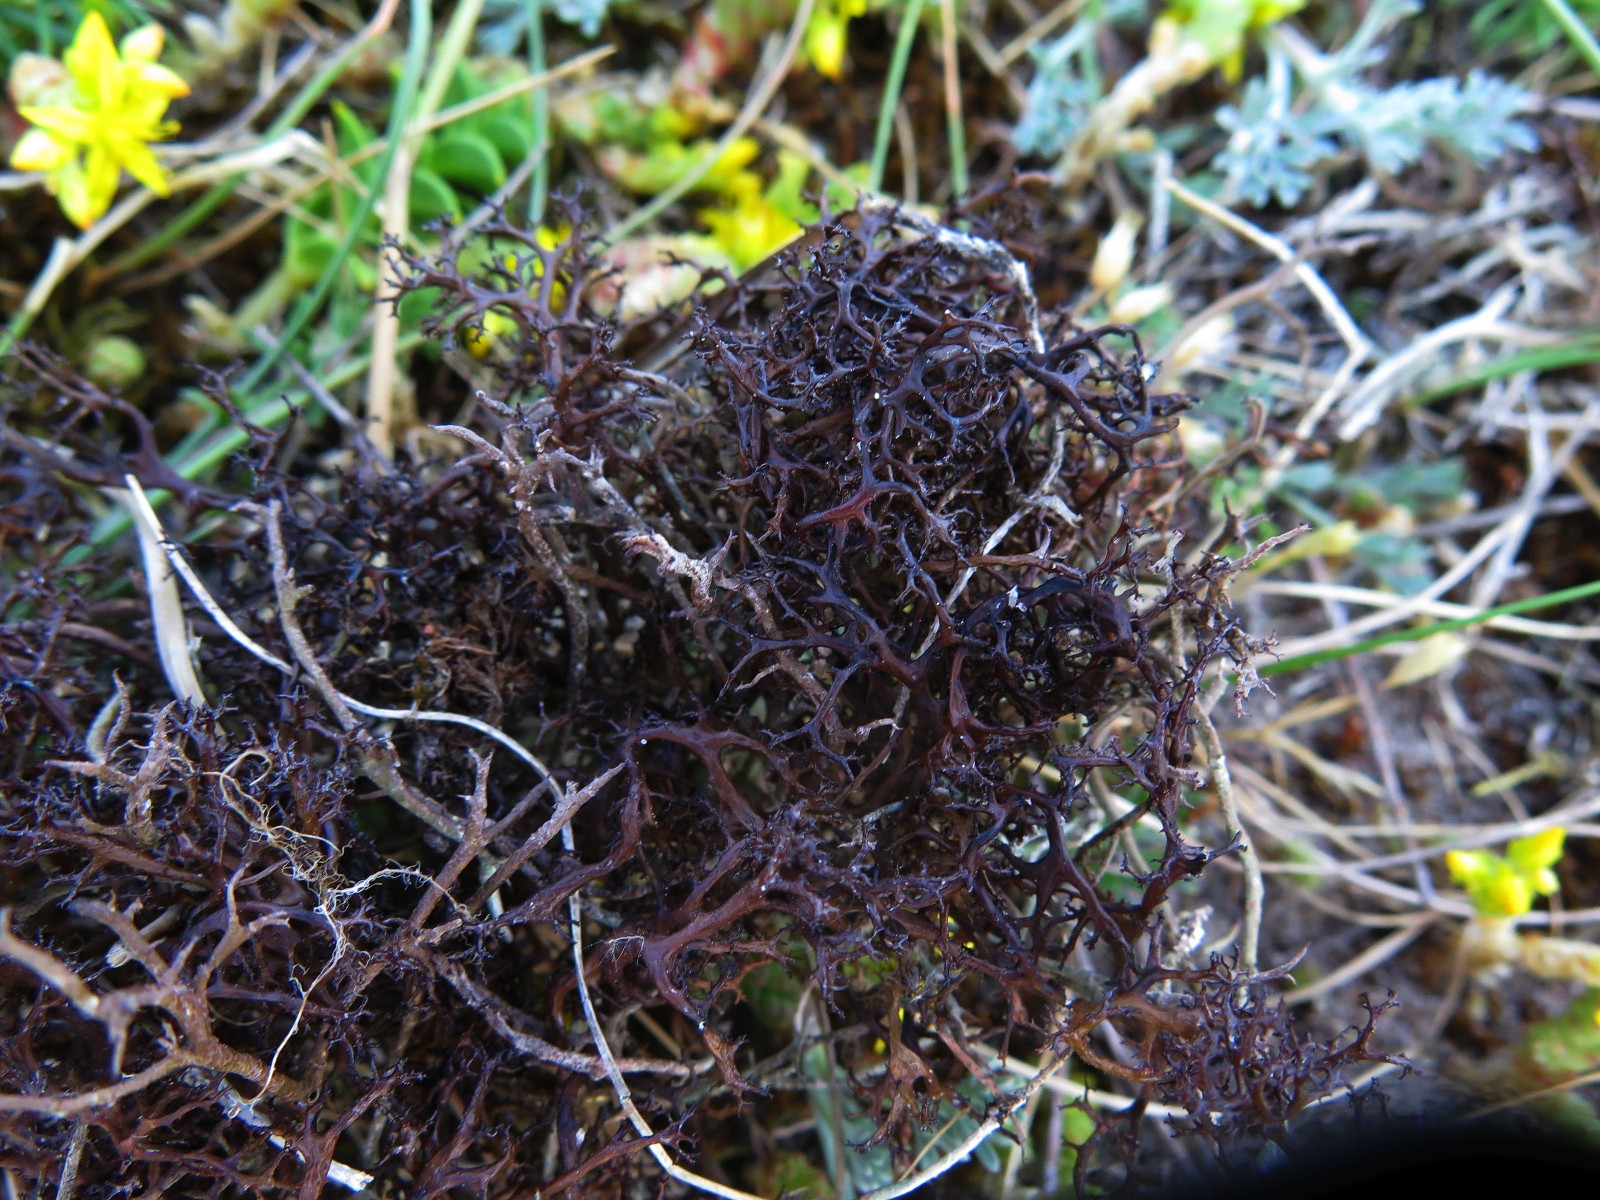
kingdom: Fungi
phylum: Ascomycota
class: Lecanoromycetes
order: Lecanorales
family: Parmeliaceae
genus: Cetraria
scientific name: Cetraria aculeata
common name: grubet tjørnelav
